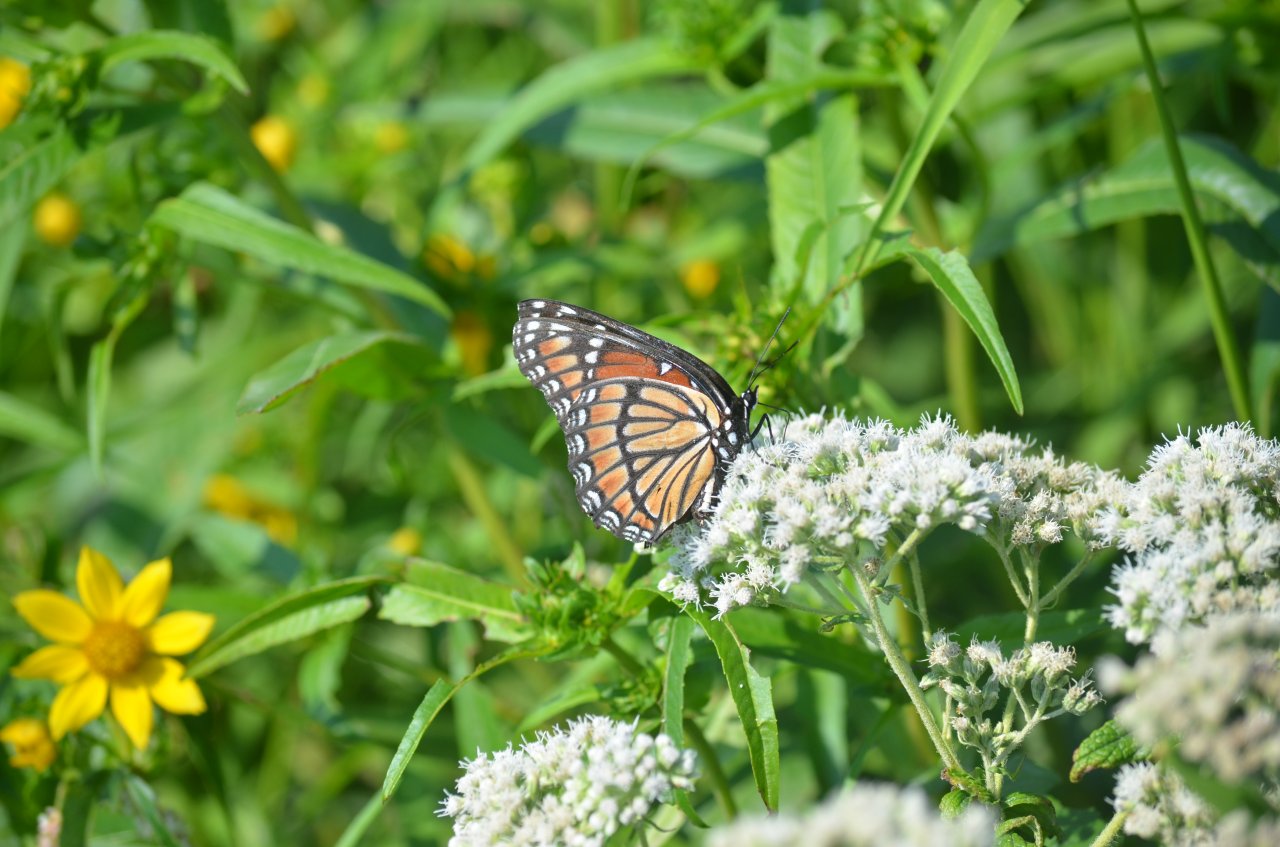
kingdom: Animalia
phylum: Arthropoda
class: Insecta
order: Lepidoptera
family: Nymphalidae
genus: Limenitis
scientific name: Limenitis archippus
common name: Viceroy
